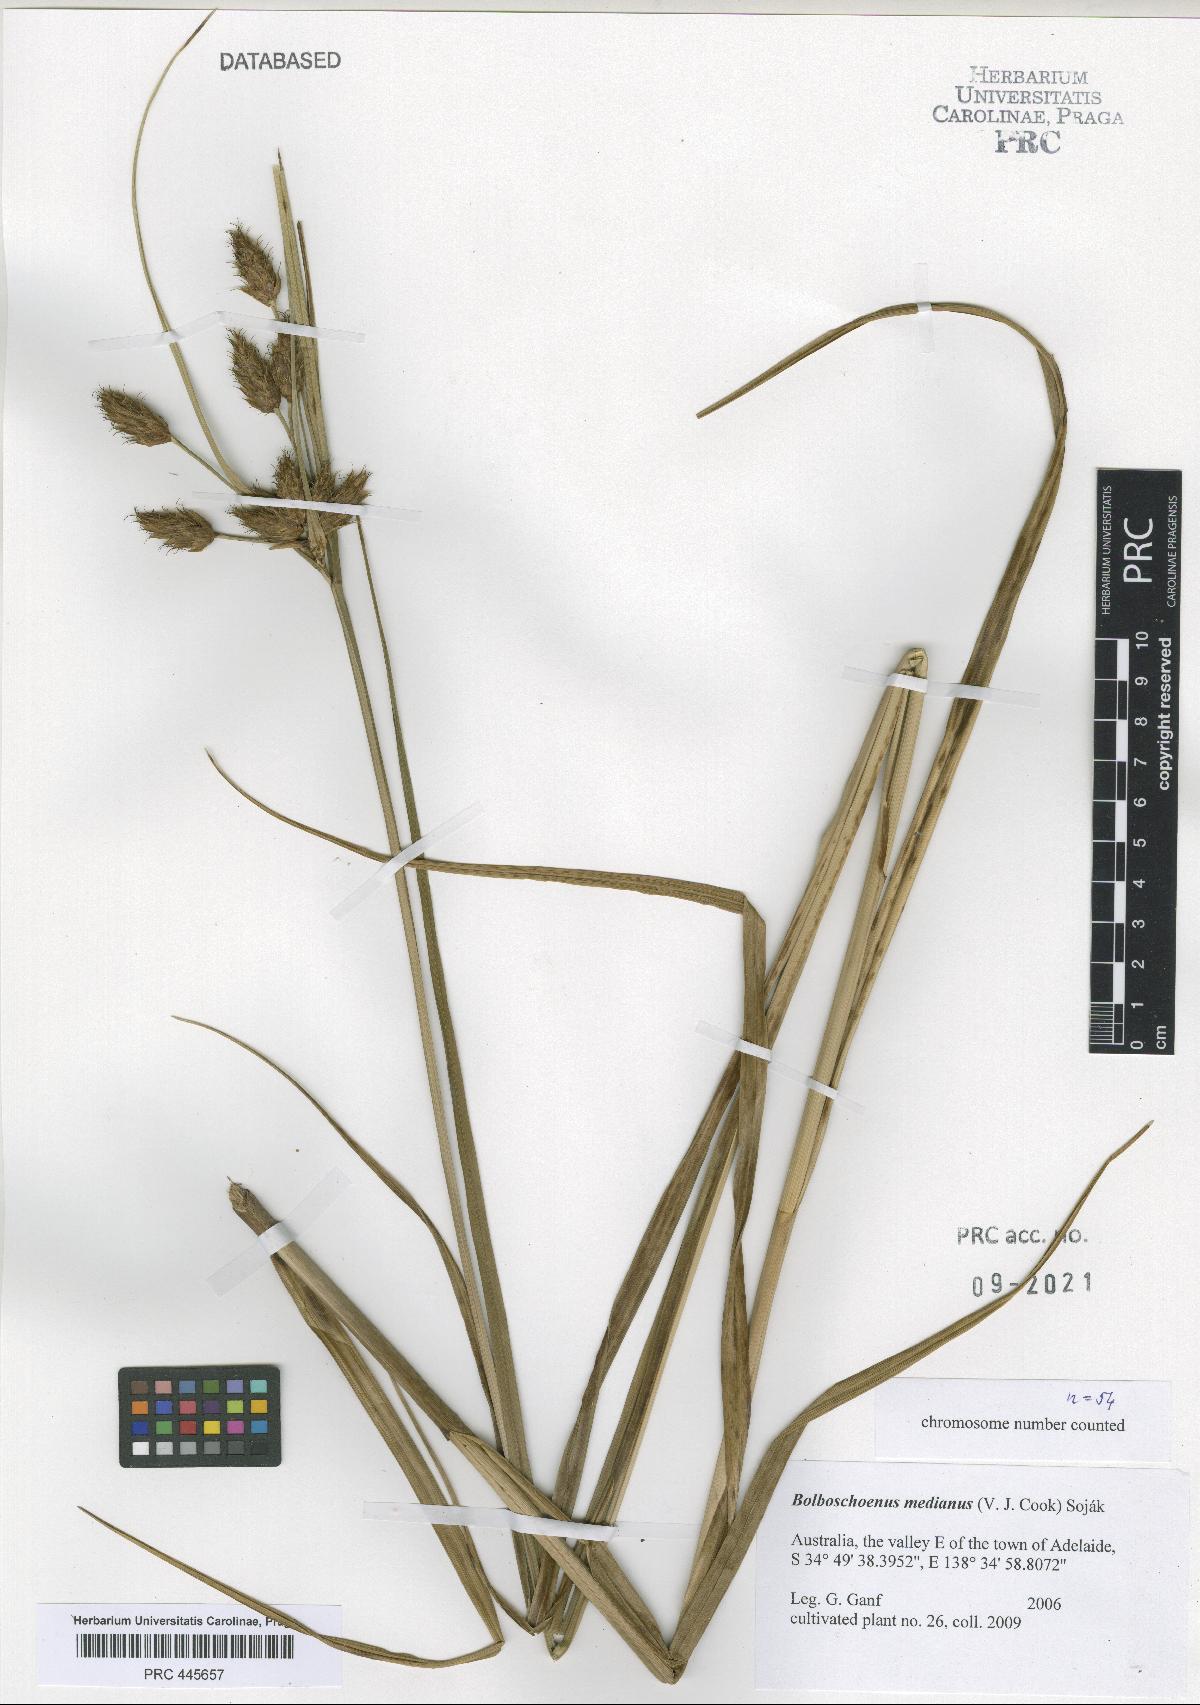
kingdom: Plantae
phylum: Tracheophyta
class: Liliopsida
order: Poales
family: Cyperaceae
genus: Bolboschoenus
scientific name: Bolboschoenus medianus
